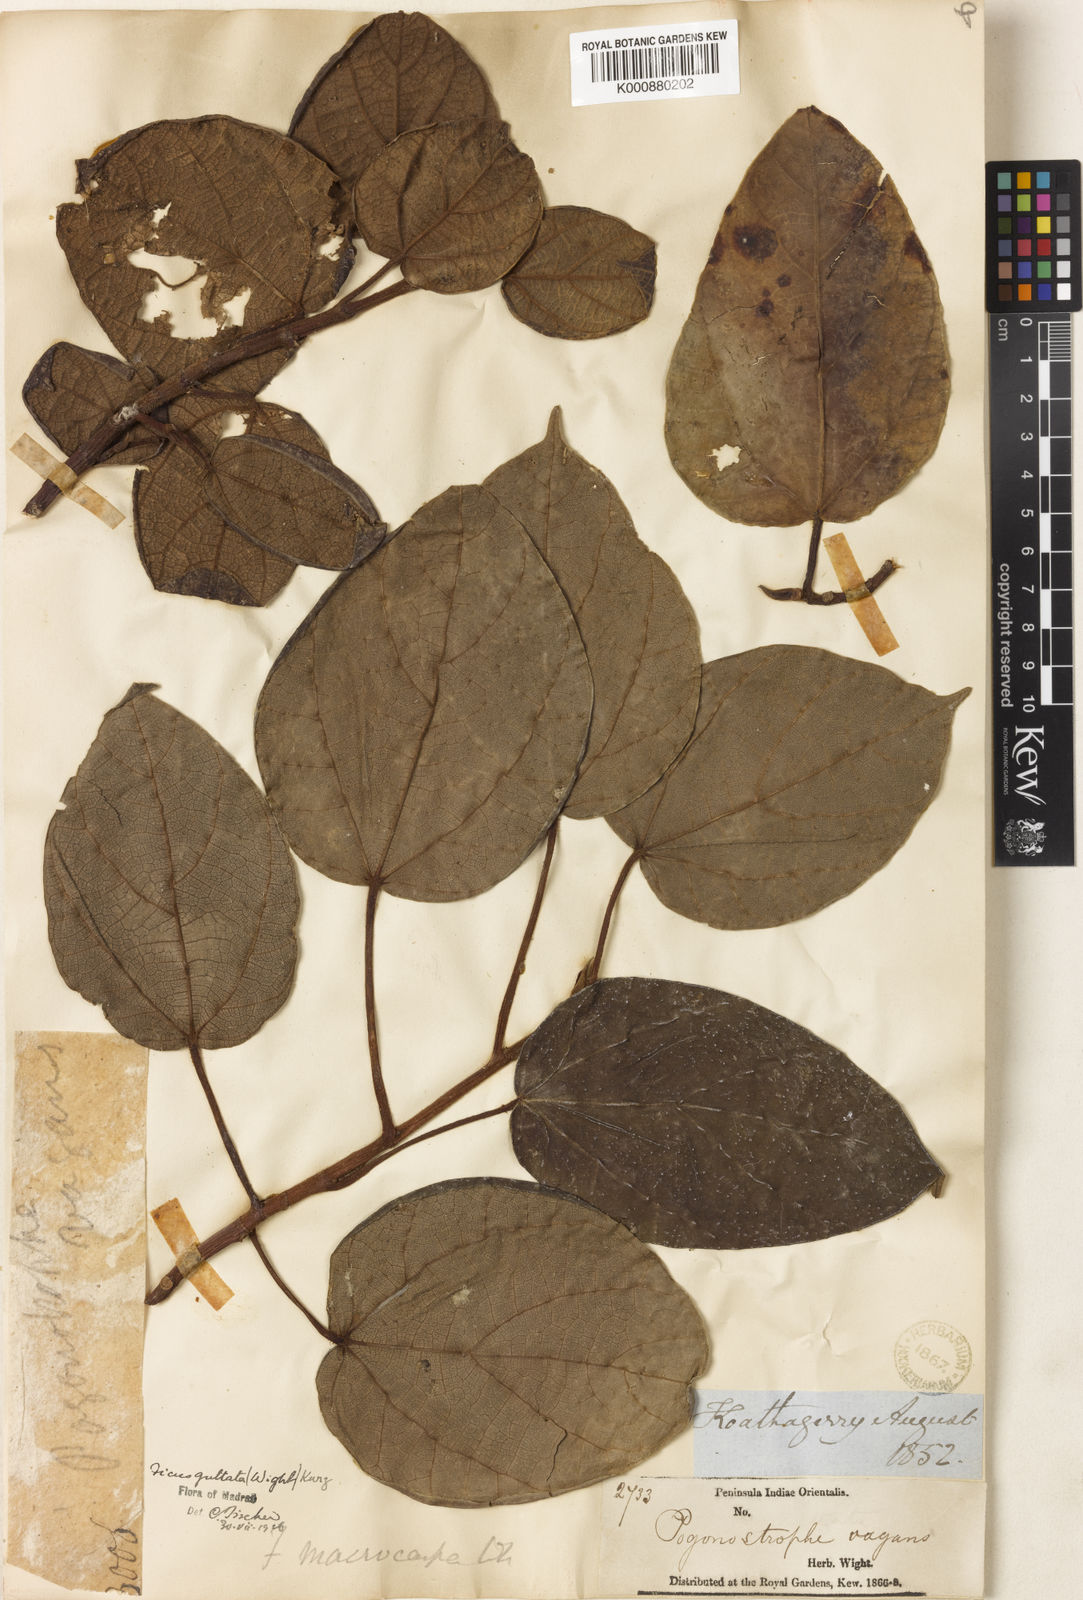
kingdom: Plantae
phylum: Tracheophyta
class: Magnoliopsida
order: Rosales
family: Moraceae
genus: Ficus
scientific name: Ficus laevis
